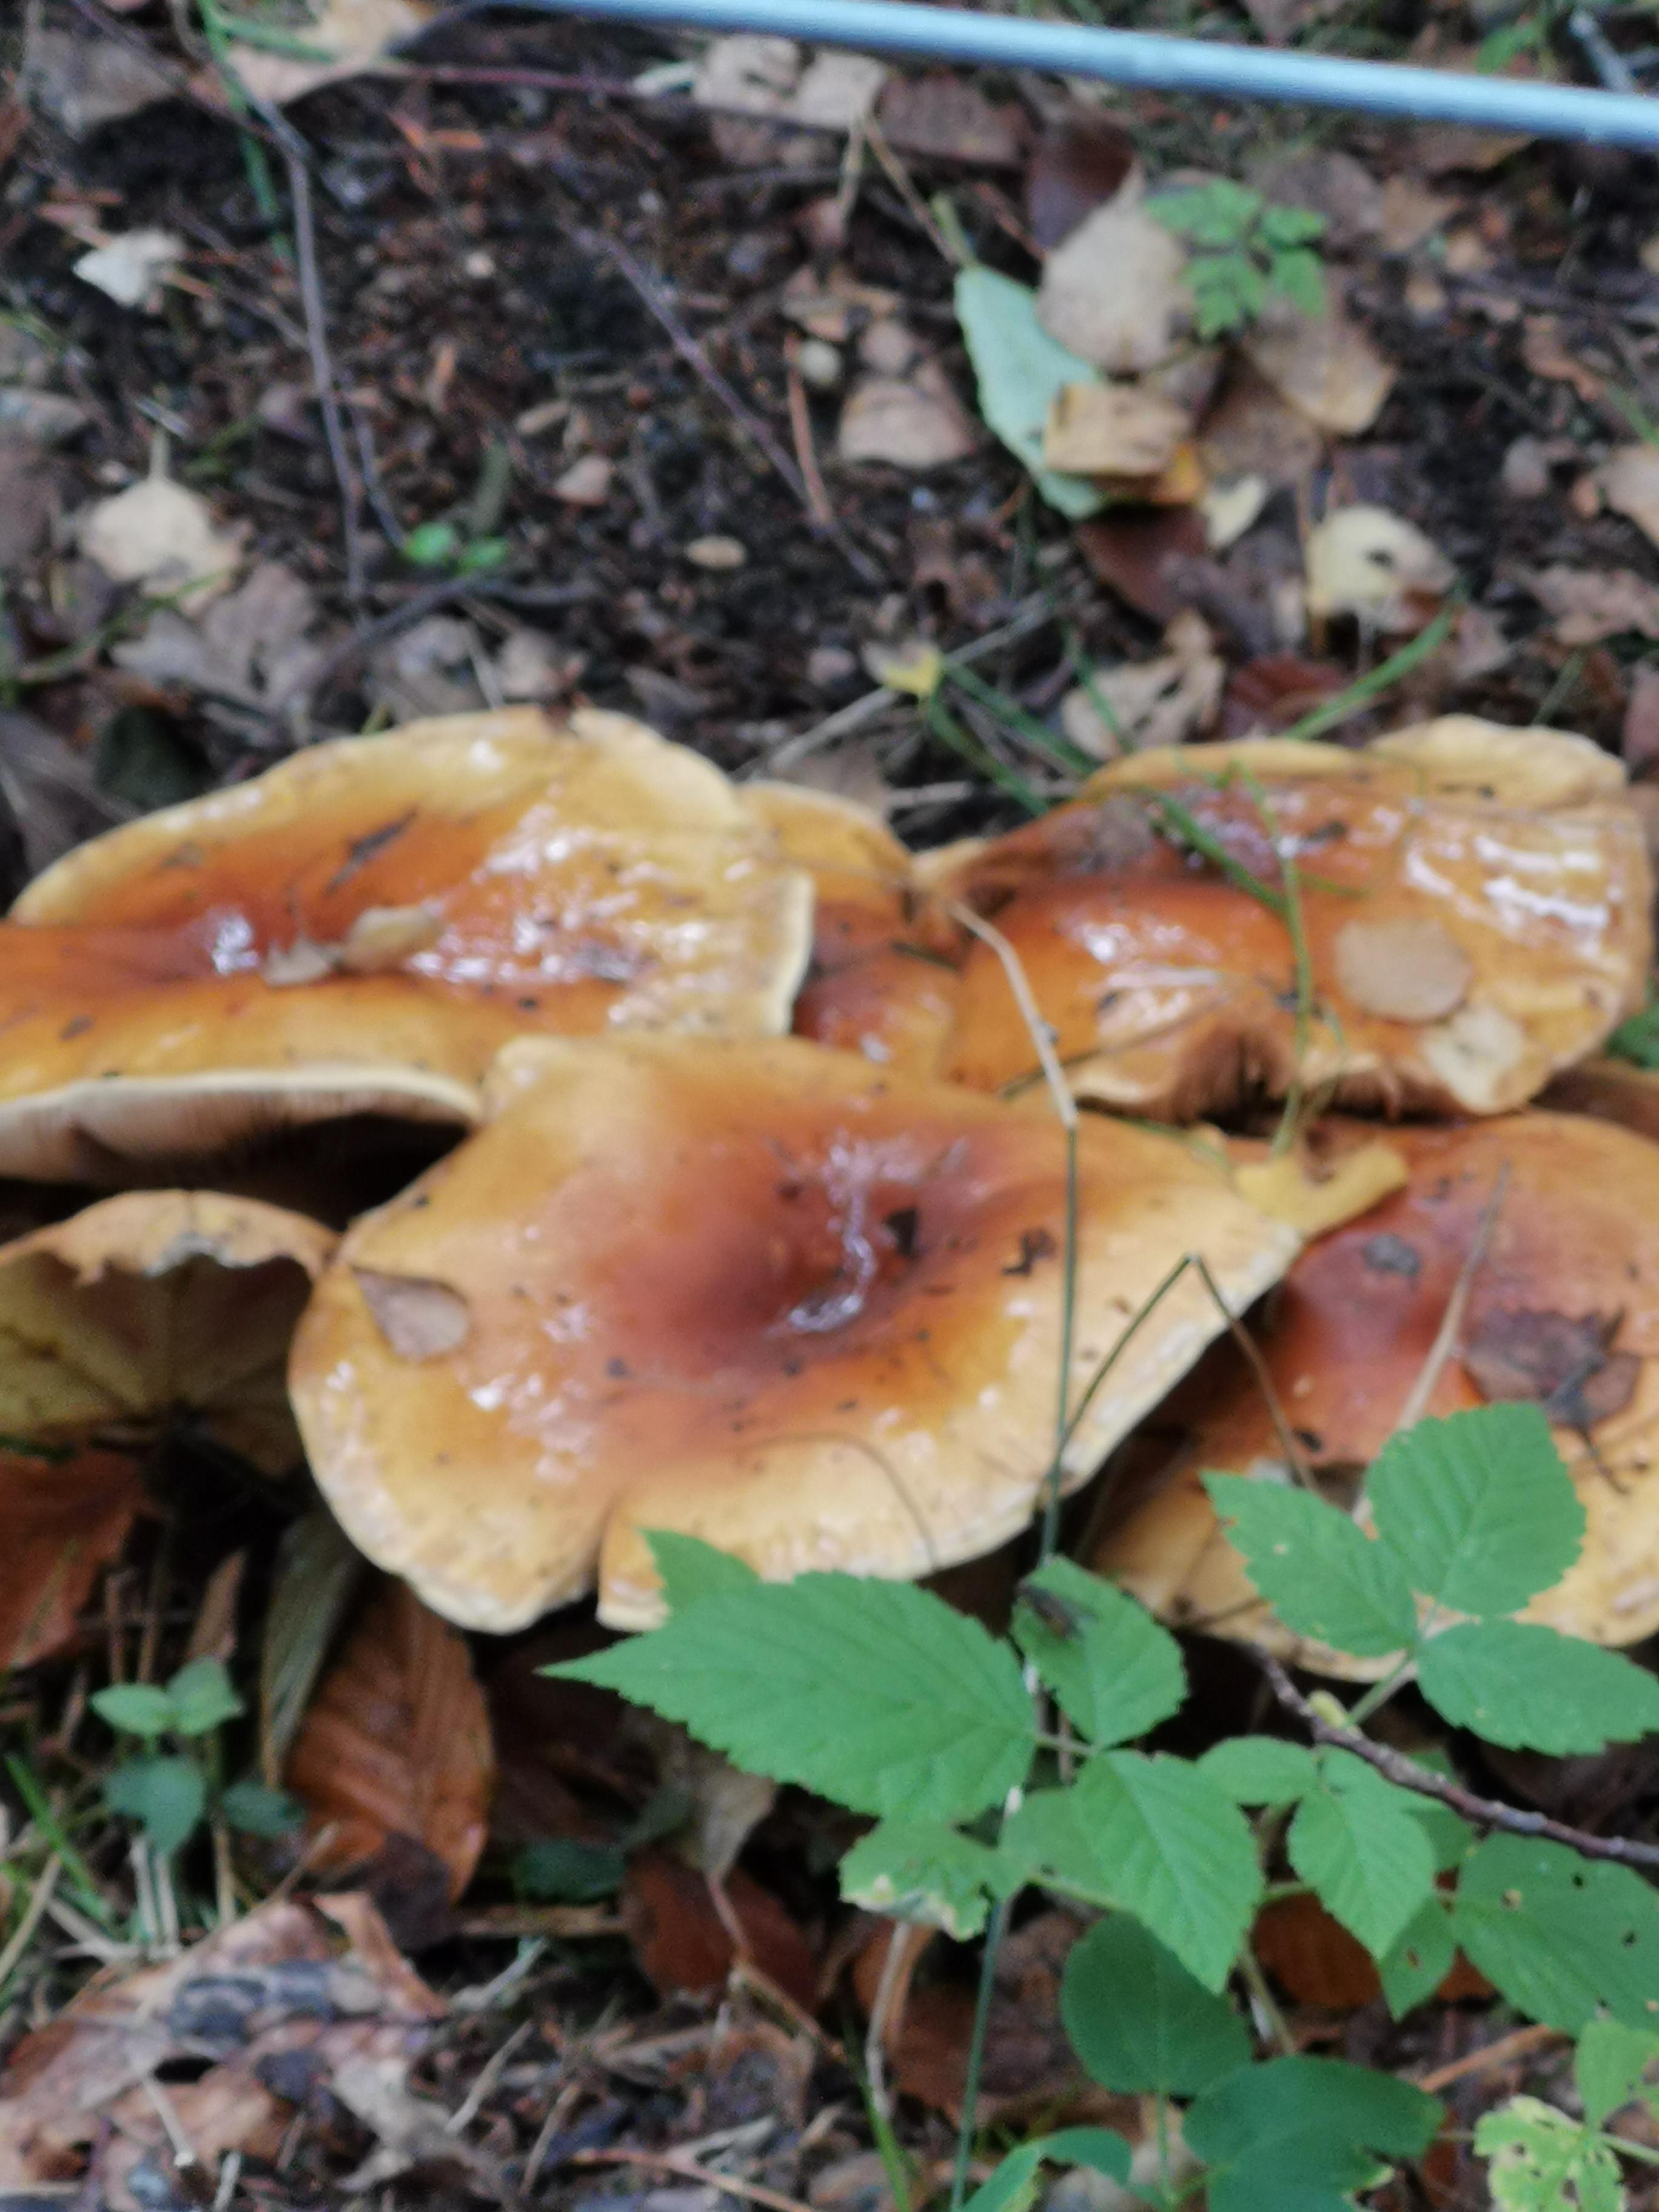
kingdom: Fungi
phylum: Basidiomycota
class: Agaricomycetes
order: Agaricales
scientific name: Agaricales
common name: champignonordenen
